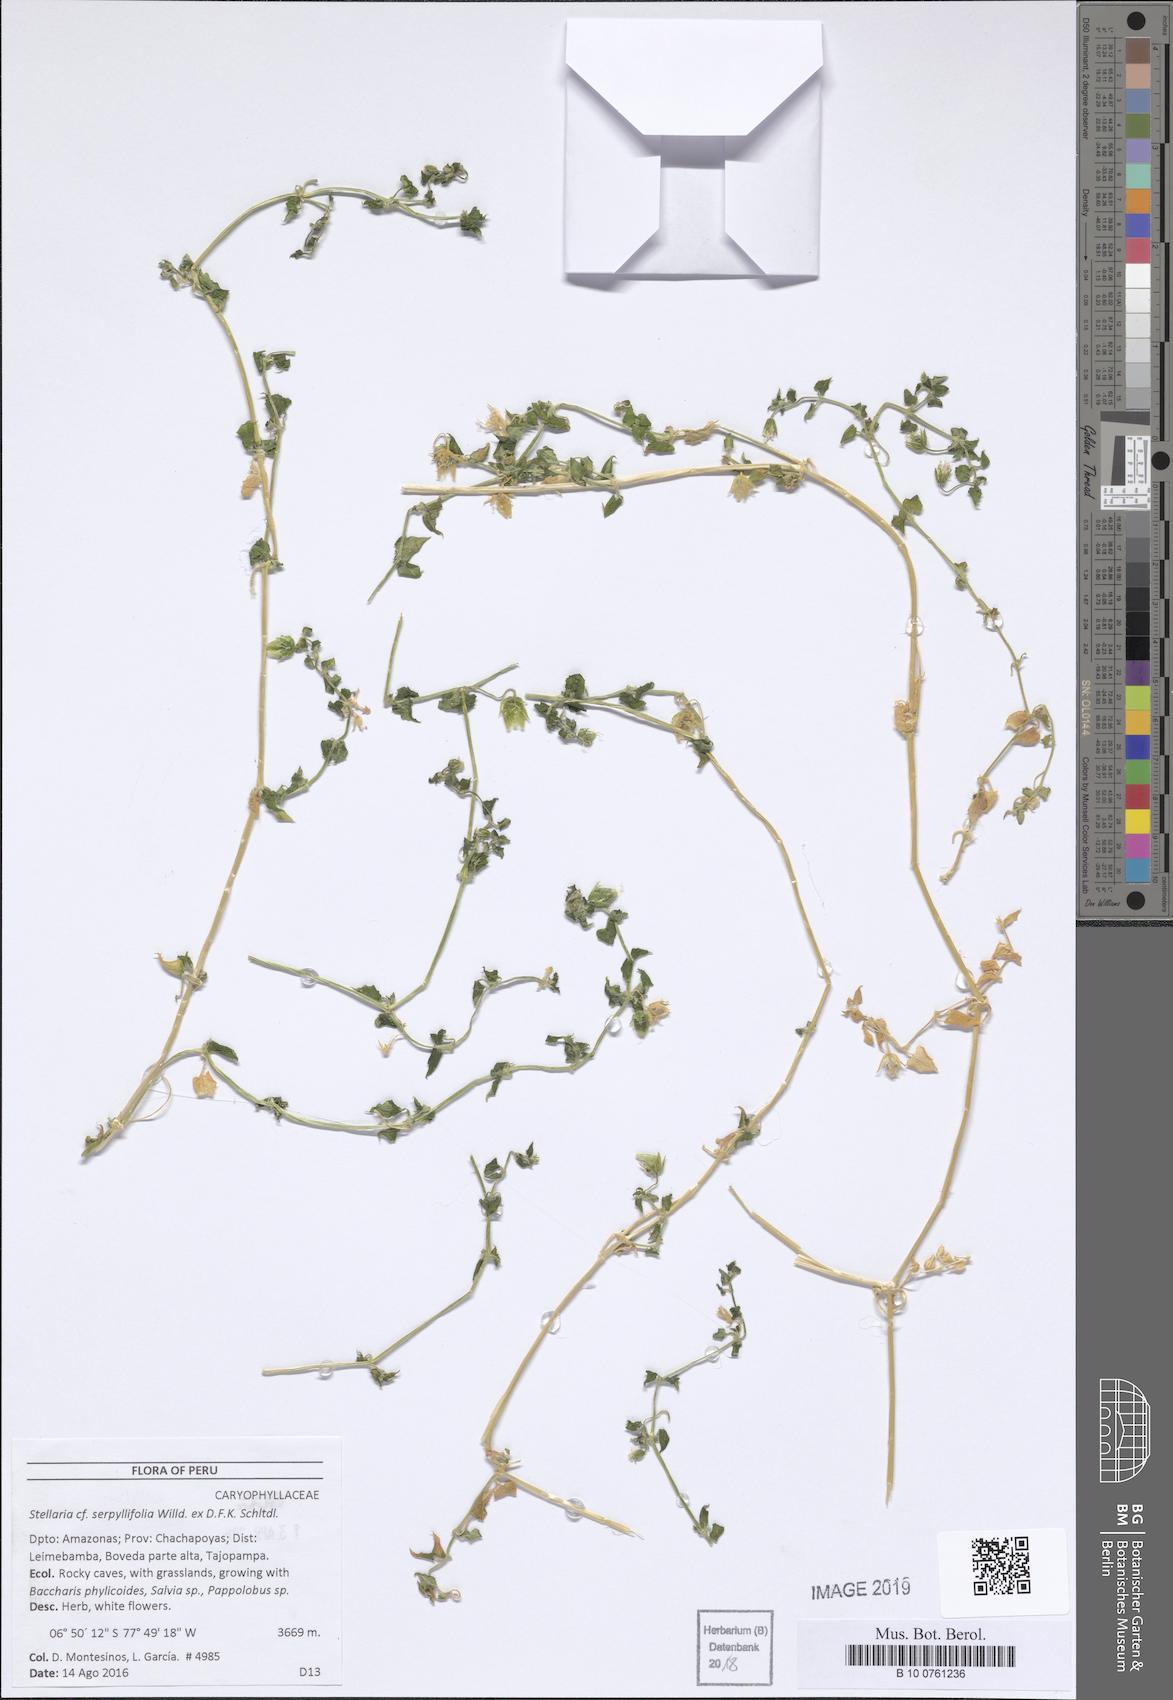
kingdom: Plantae
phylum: Tracheophyta
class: Magnoliopsida
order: Caryophyllales
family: Caryophyllaceae
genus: Stellaria
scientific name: Stellaria recurvata
